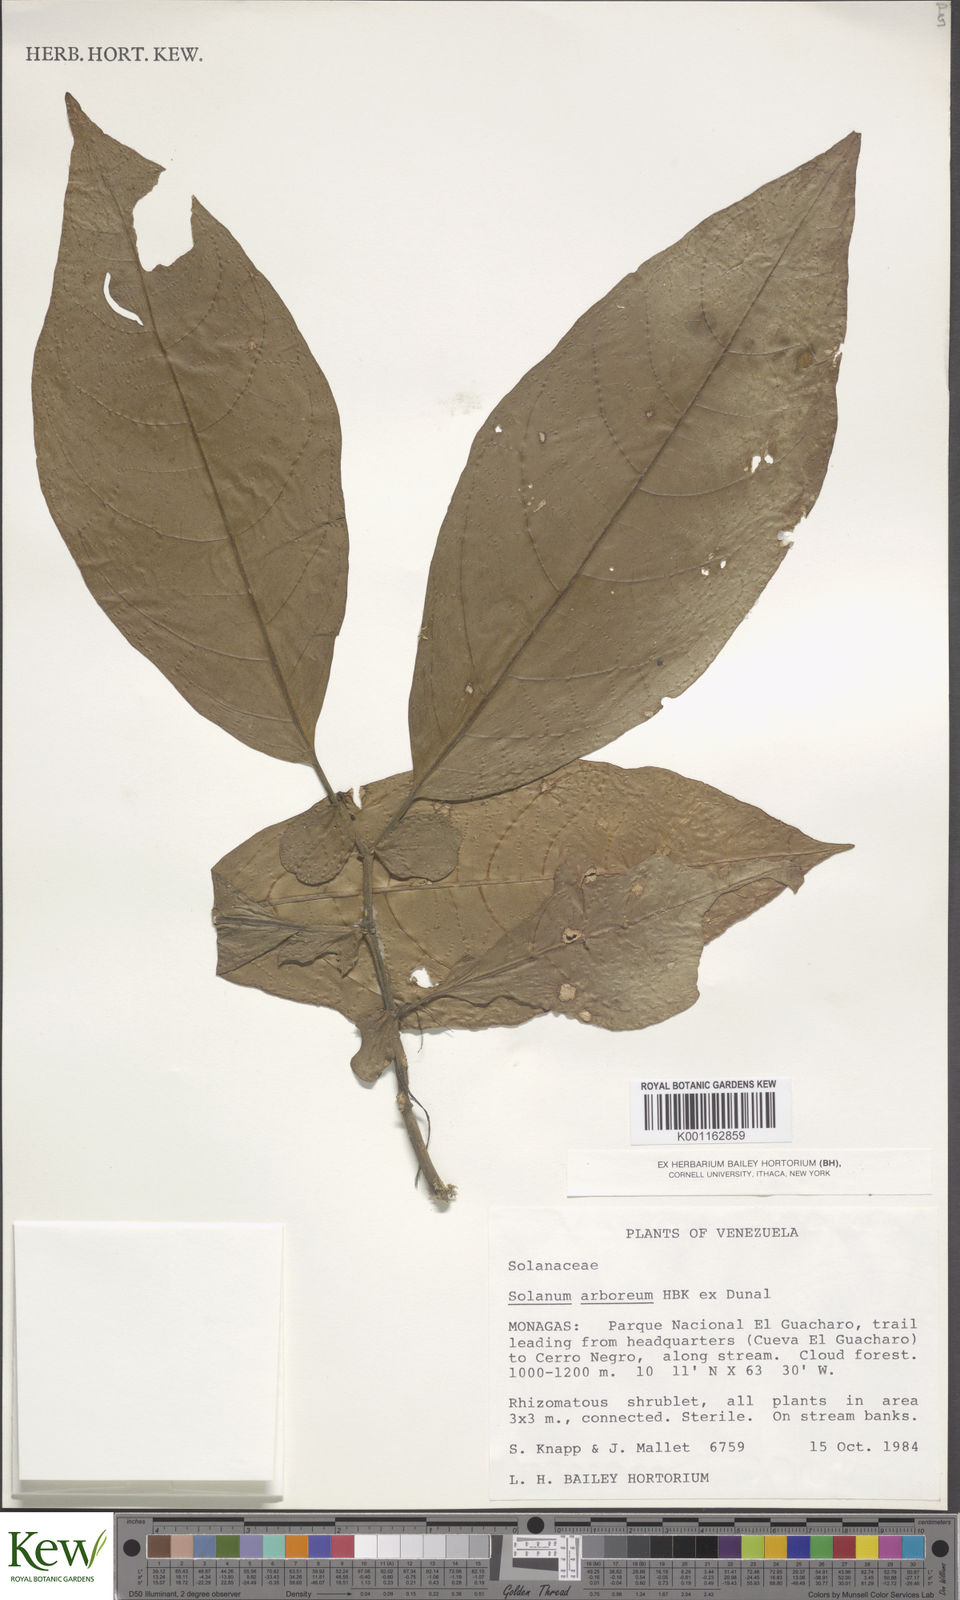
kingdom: Plantae
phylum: Tracheophyta
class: Magnoliopsida
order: Solanales
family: Solanaceae
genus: Solanum
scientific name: Solanum arboreum
